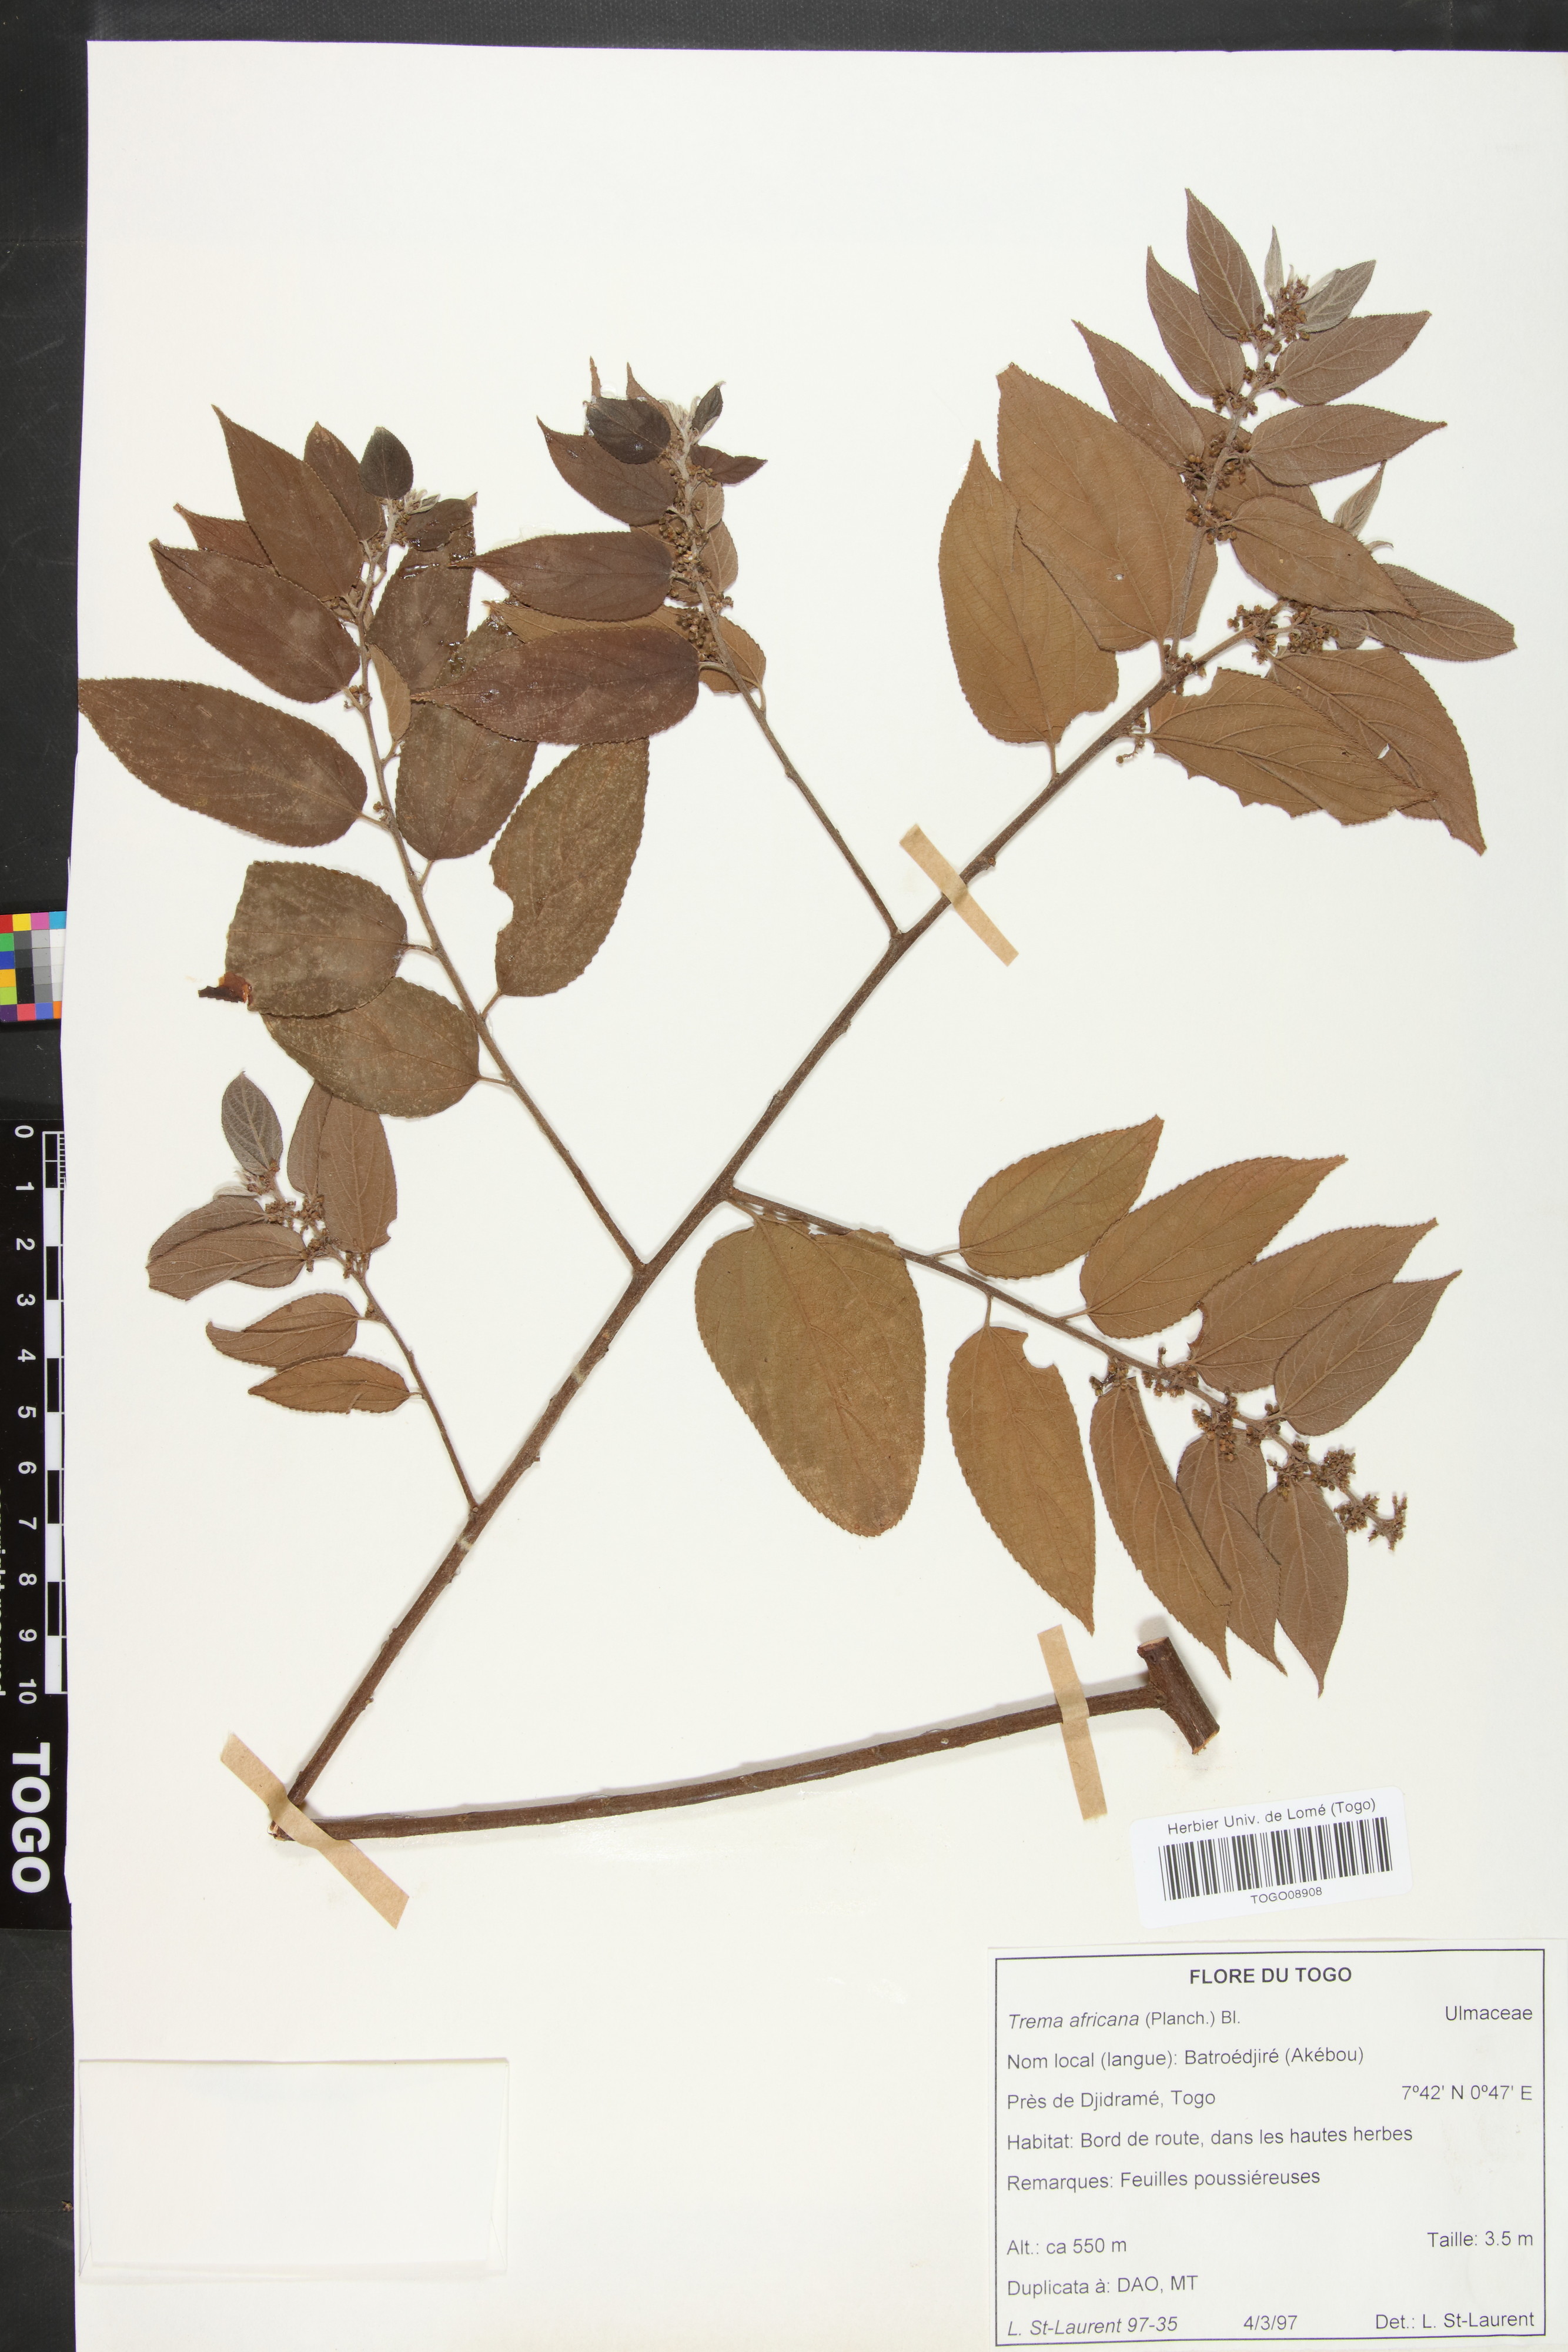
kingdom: Plantae
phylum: Tracheophyta
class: Magnoliopsida
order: Rosales
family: Cannabaceae
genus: Trema
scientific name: Trema orientale
